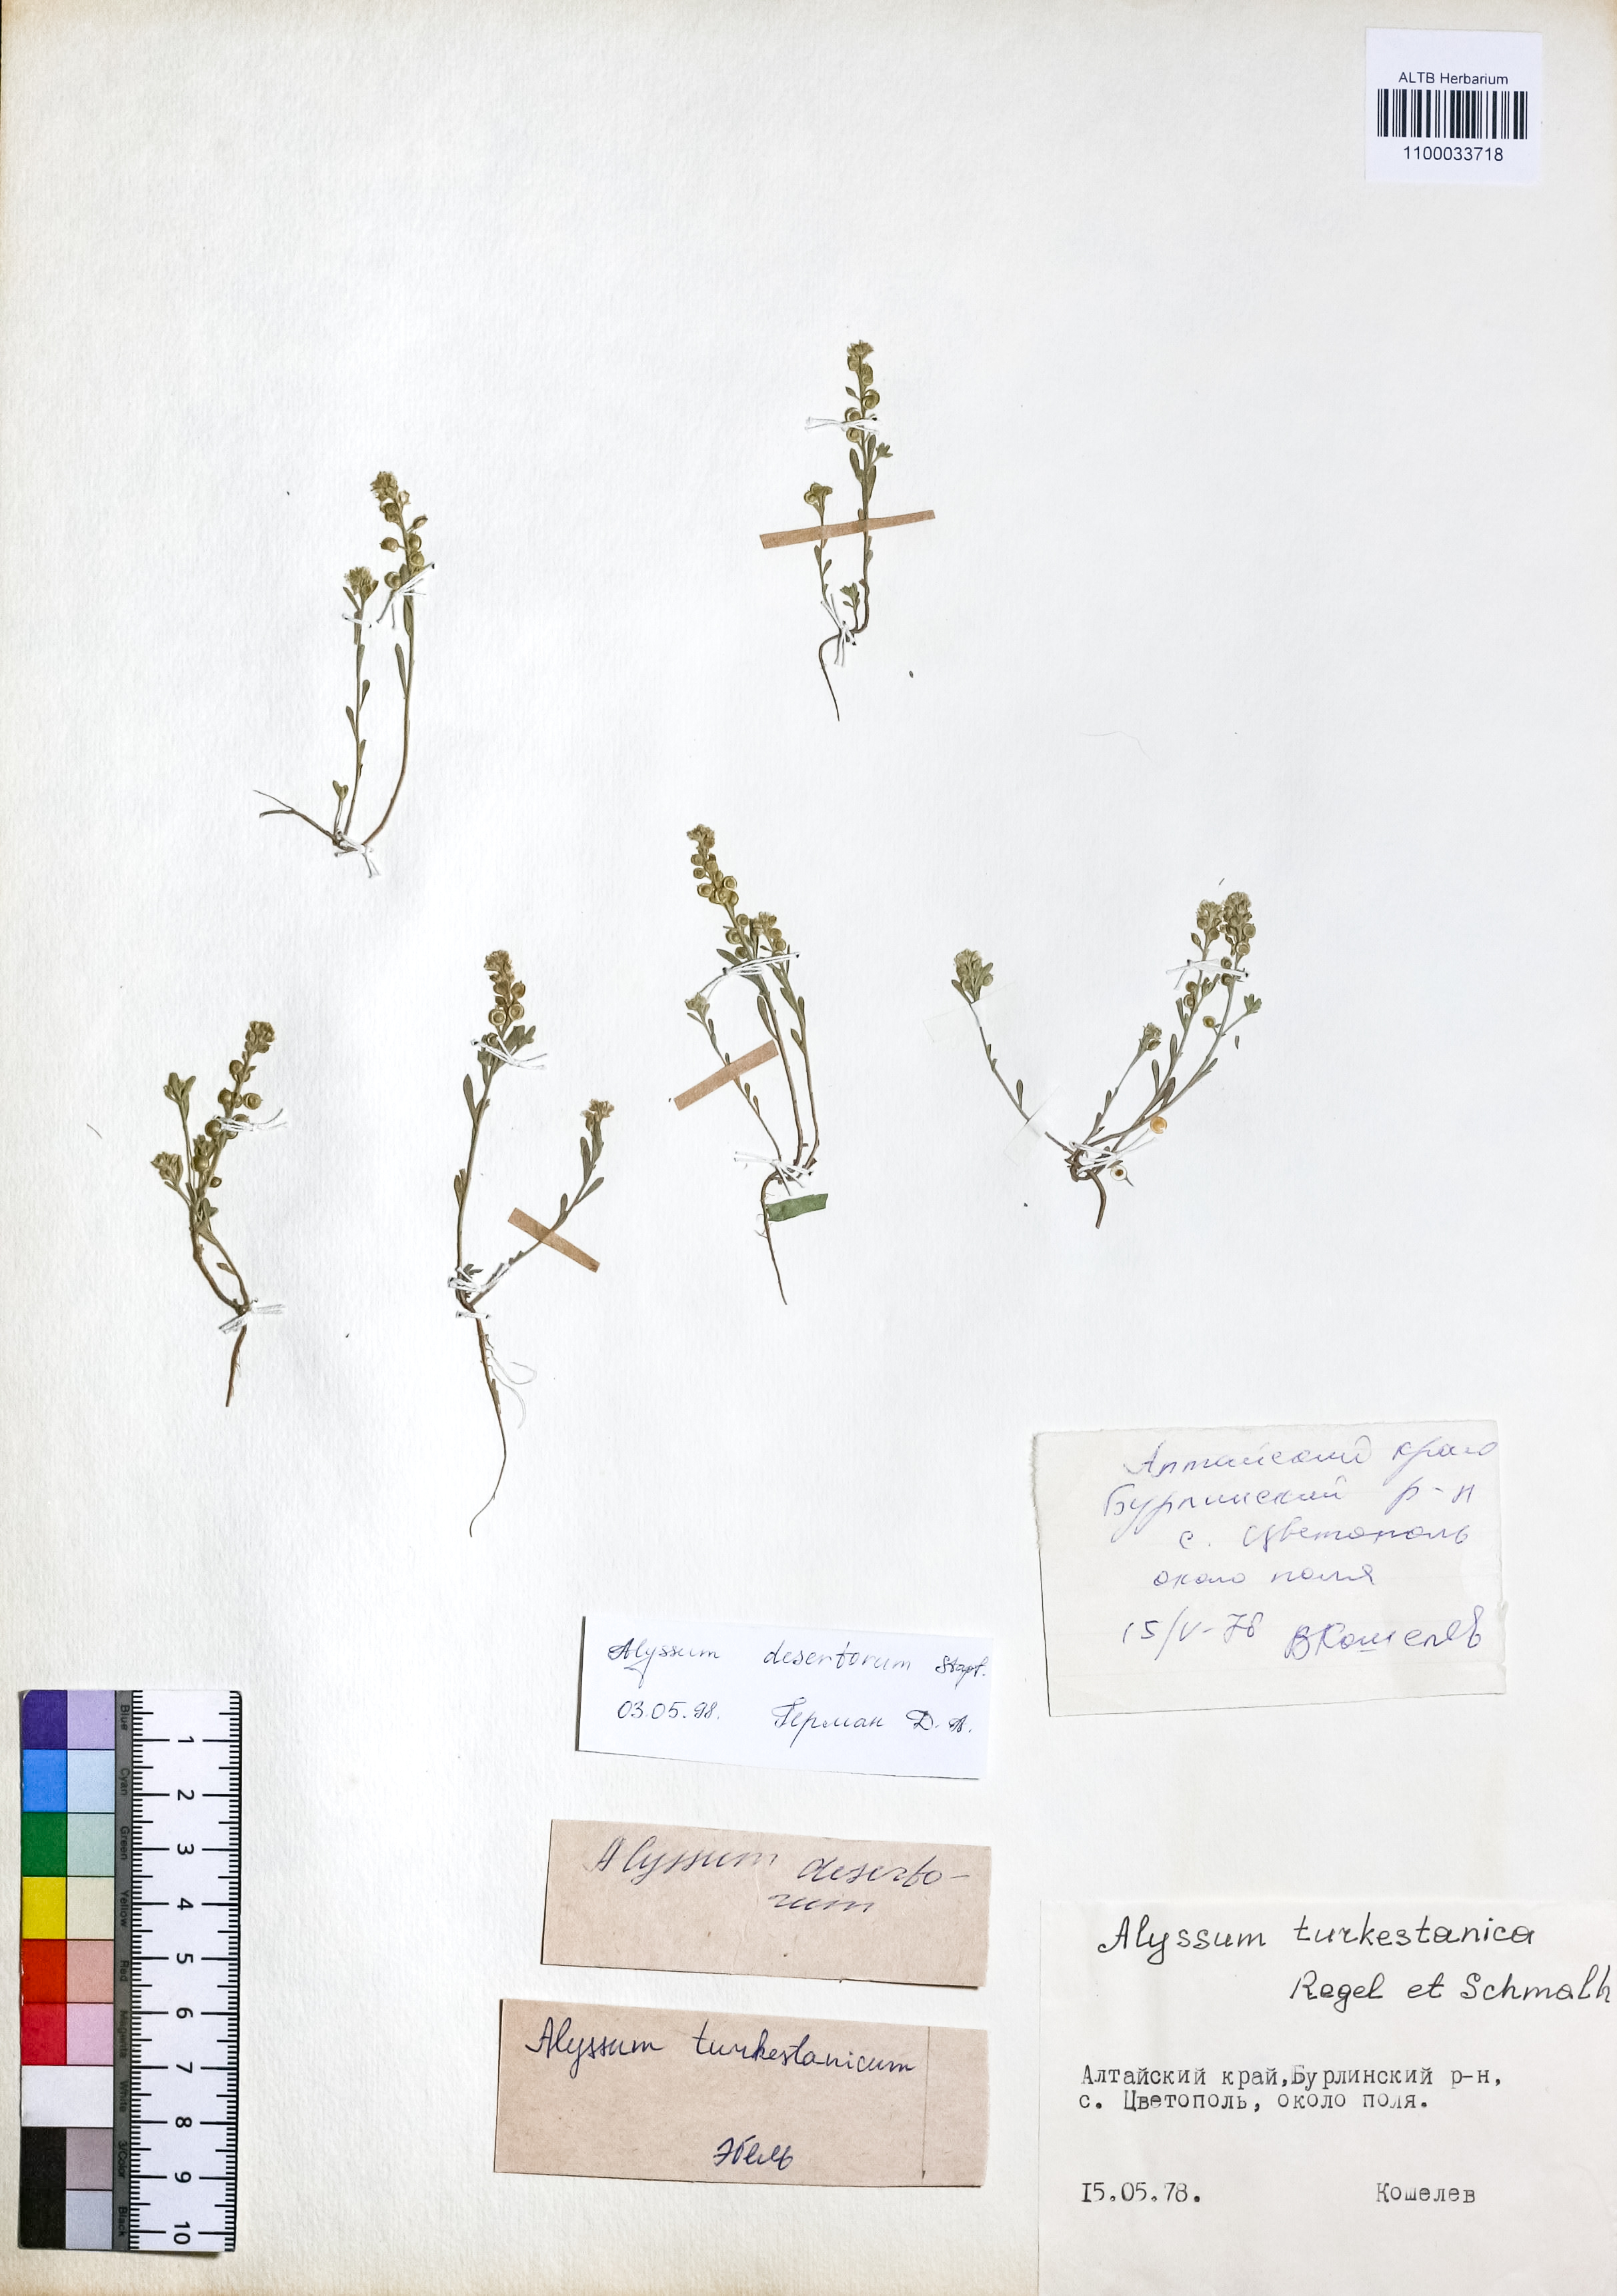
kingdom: Plantae
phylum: Tracheophyta
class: Magnoliopsida
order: Brassicales
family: Brassicaceae
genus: Alyssum
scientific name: Alyssum turkestanicum
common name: Desert alyssum
